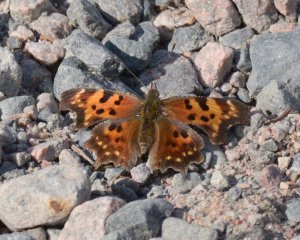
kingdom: Animalia
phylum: Arthropoda
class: Insecta
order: Lepidoptera
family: Nymphalidae
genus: Polygonia
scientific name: Polygonia faunus
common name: Green Comma
